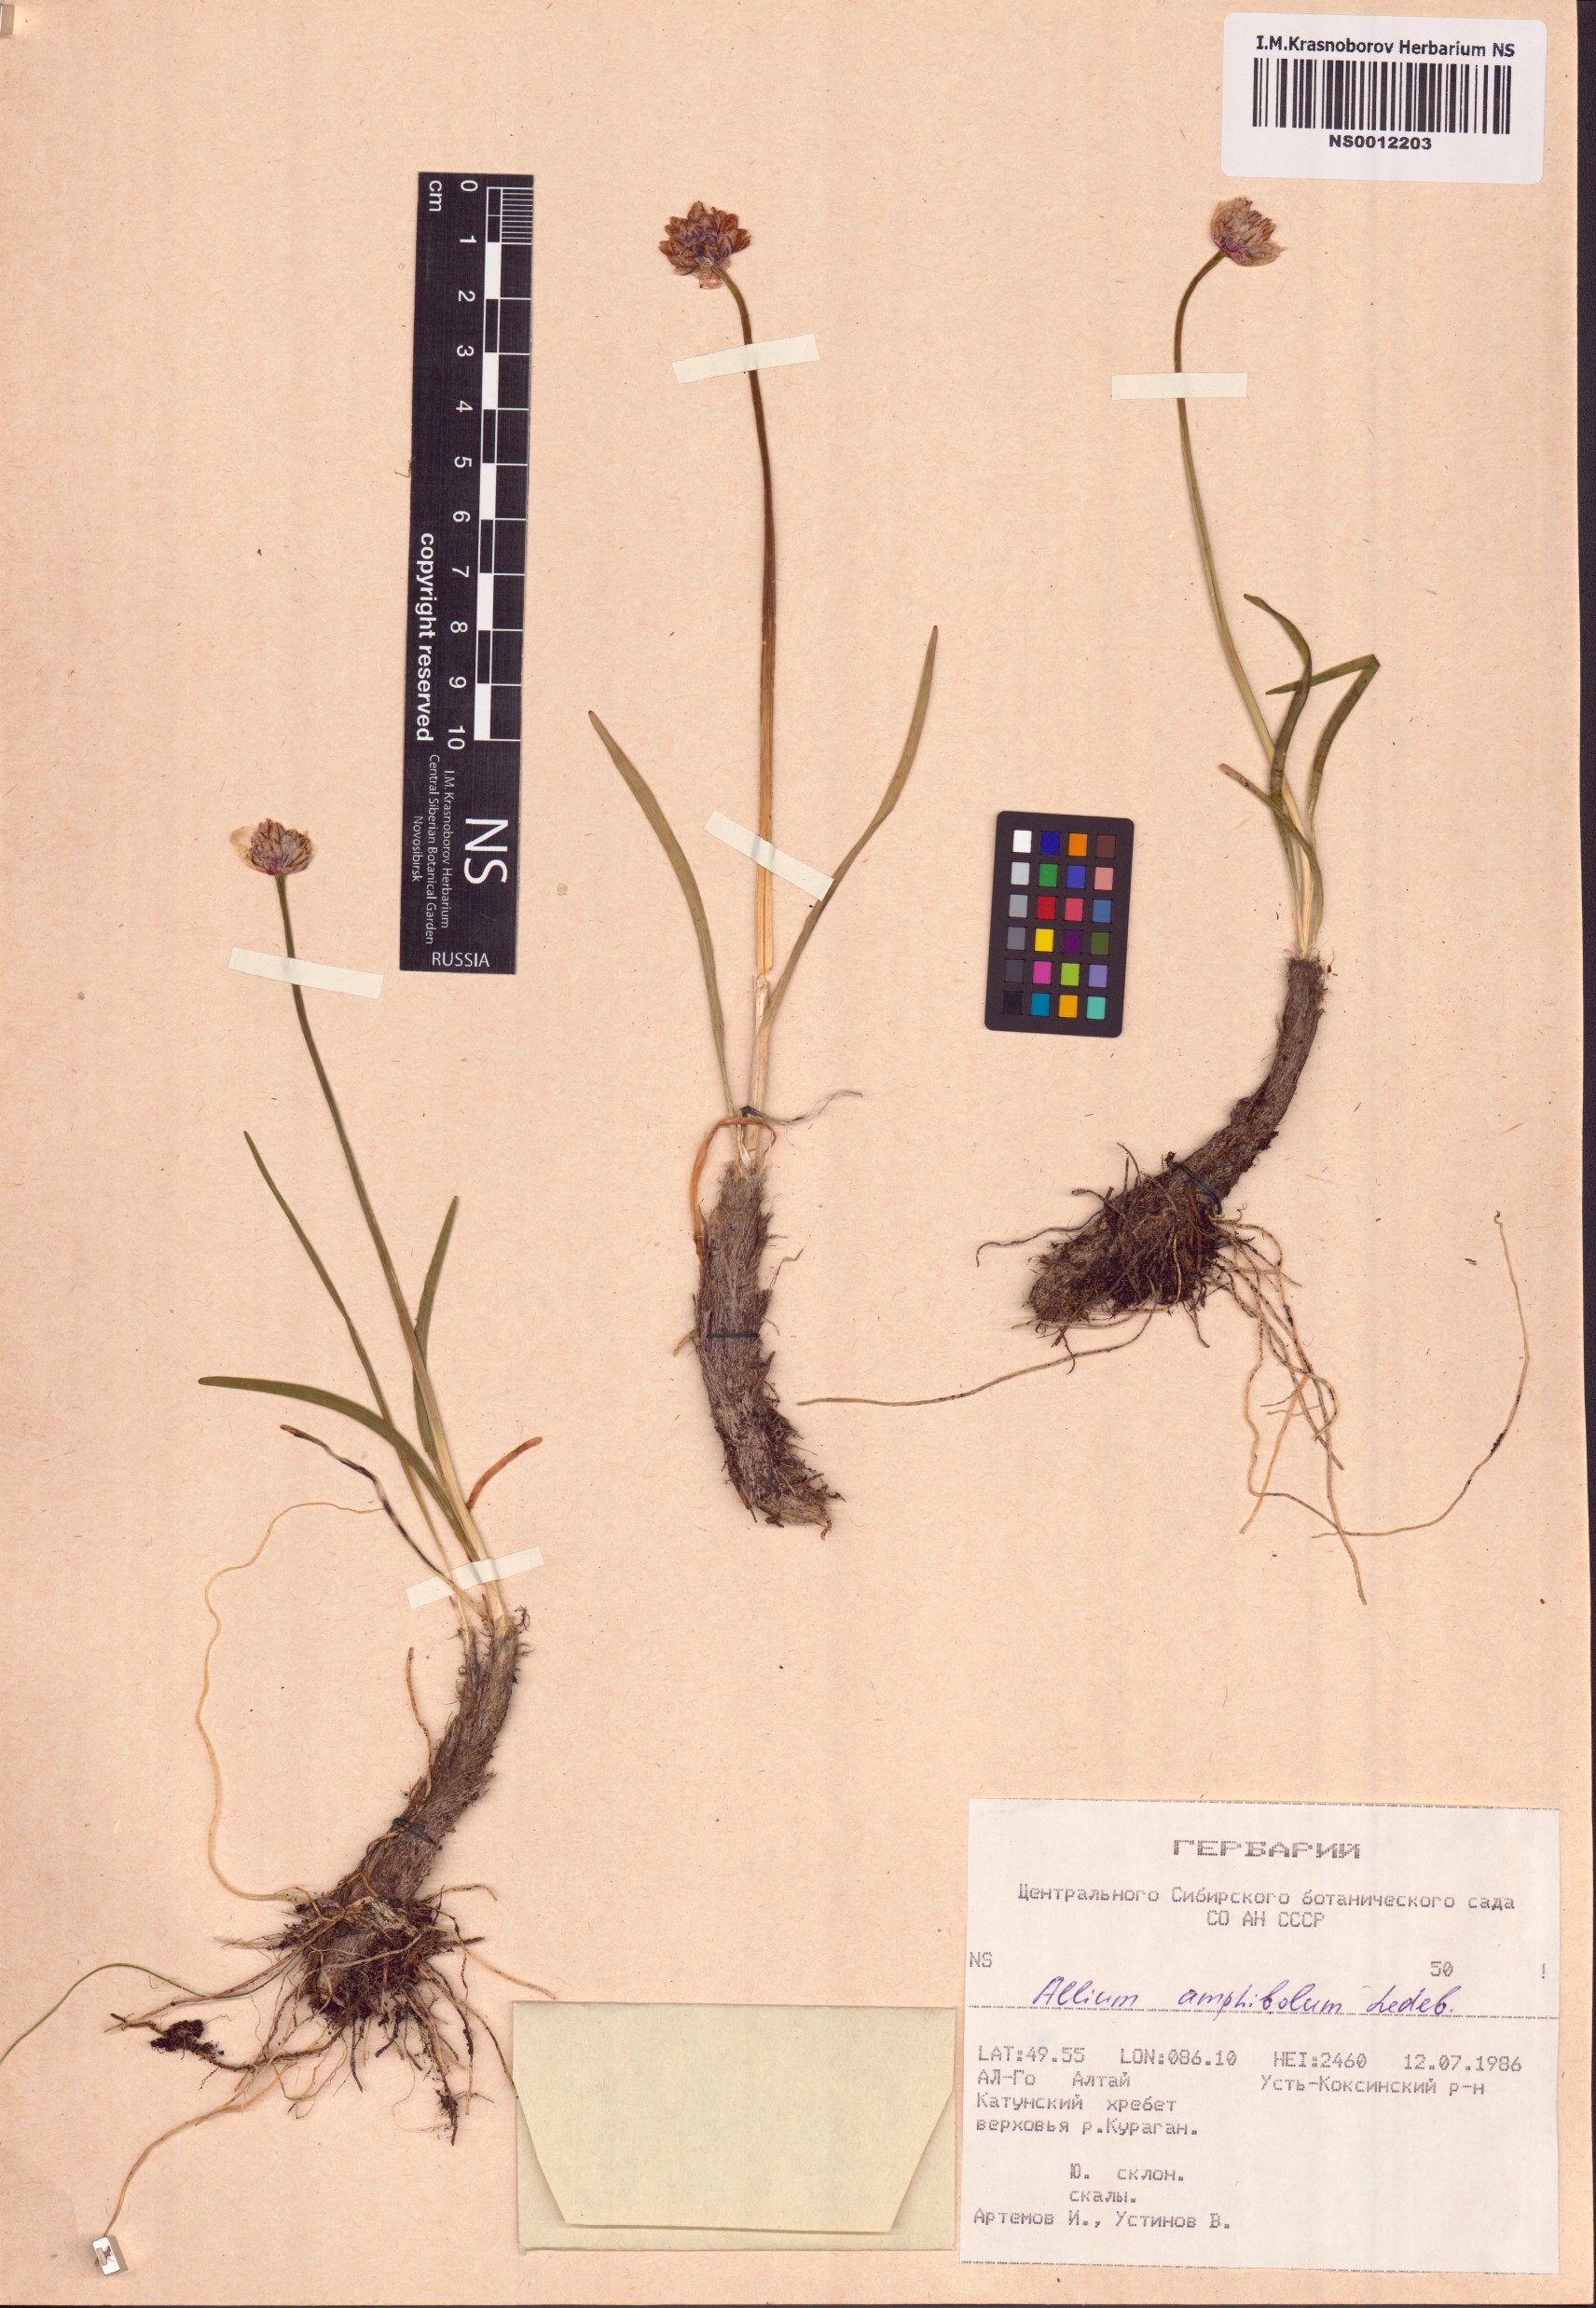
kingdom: Plantae
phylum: Tracheophyta
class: Liliopsida
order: Asparagales
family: Amaryllidaceae
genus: Allium
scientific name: Allium amphibolum
